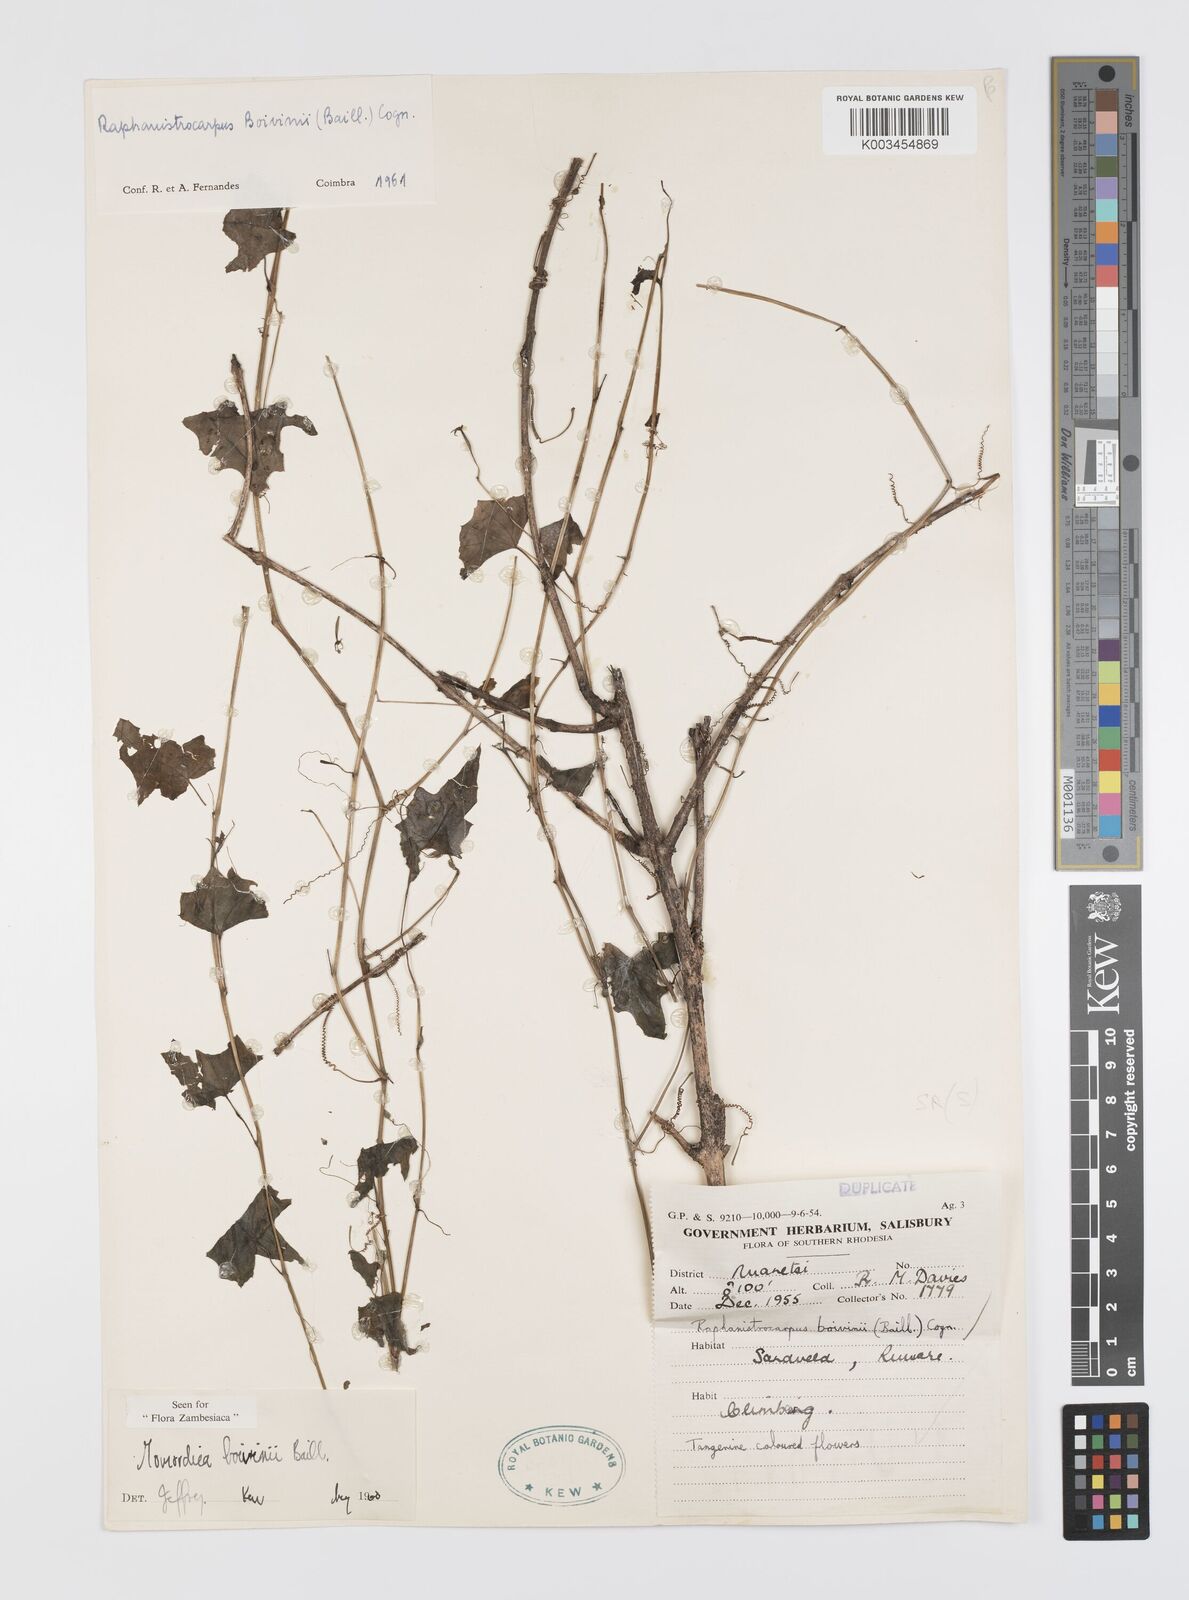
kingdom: Plantae
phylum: Tracheophyta
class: Magnoliopsida
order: Cucurbitales
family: Cucurbitaceae
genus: Momordica
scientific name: Momordica boivinii
